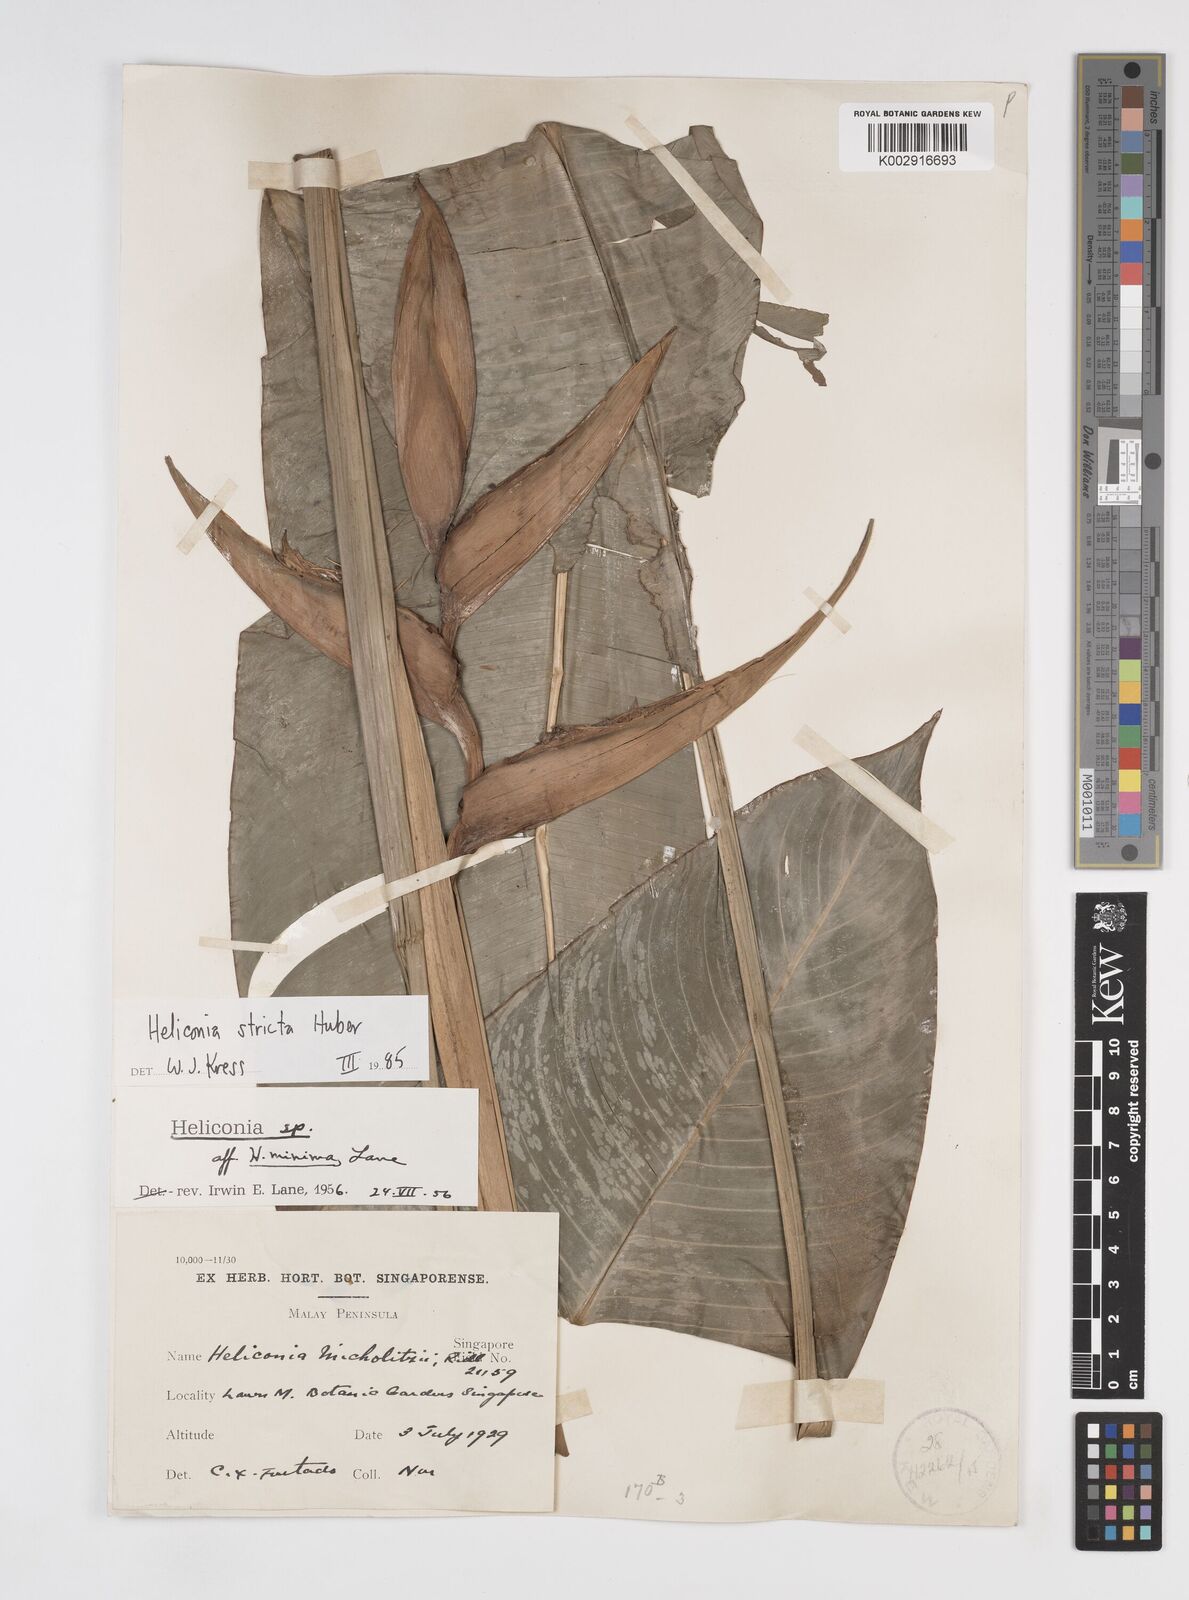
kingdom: Plantae
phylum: Tracheophyta
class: Liliopsida
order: Zingiberales
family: Heliconiaceae
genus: Heliconia
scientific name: Heliconia stricta
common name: Small lobster claw
